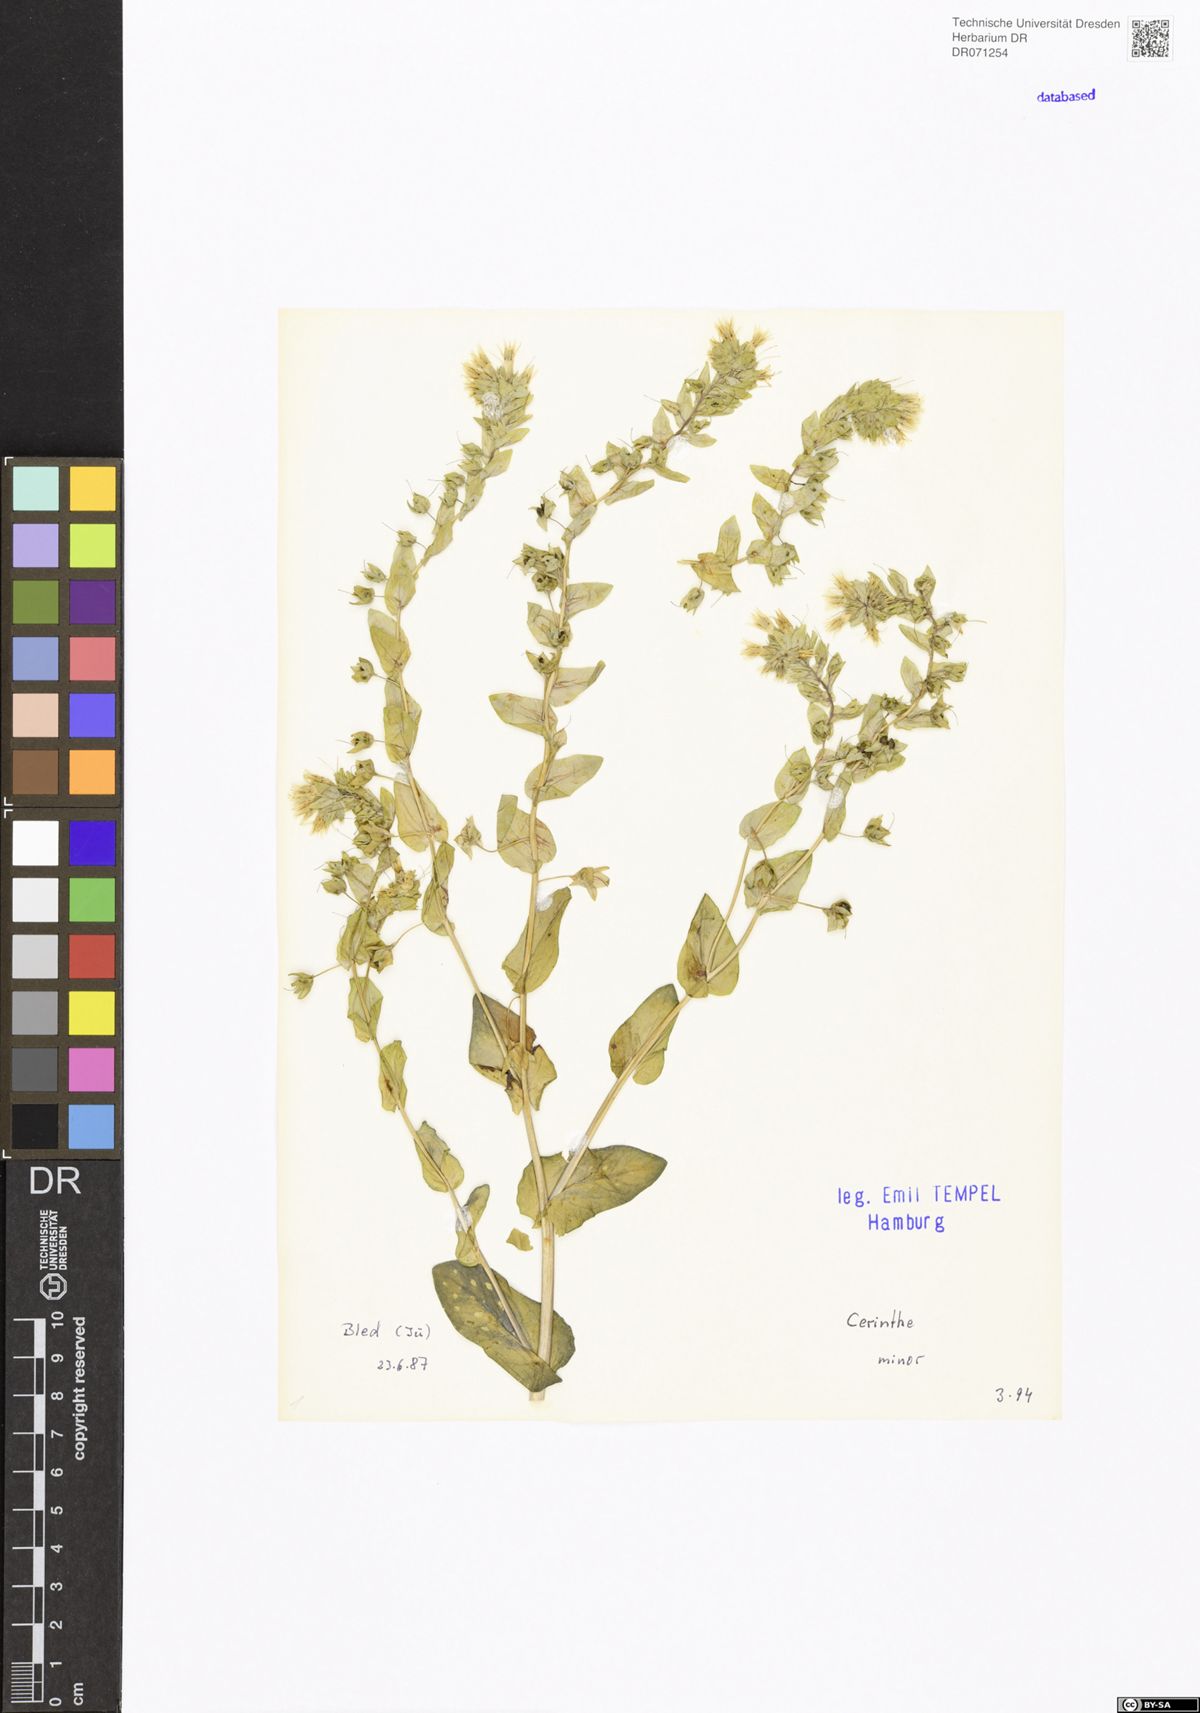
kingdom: Plantae
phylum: Tracheophyta
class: Magnoliopsida
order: Boraginales
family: Boraginaceae
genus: Cerinthe
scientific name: Cerinthe minor
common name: Lesser honeywort
